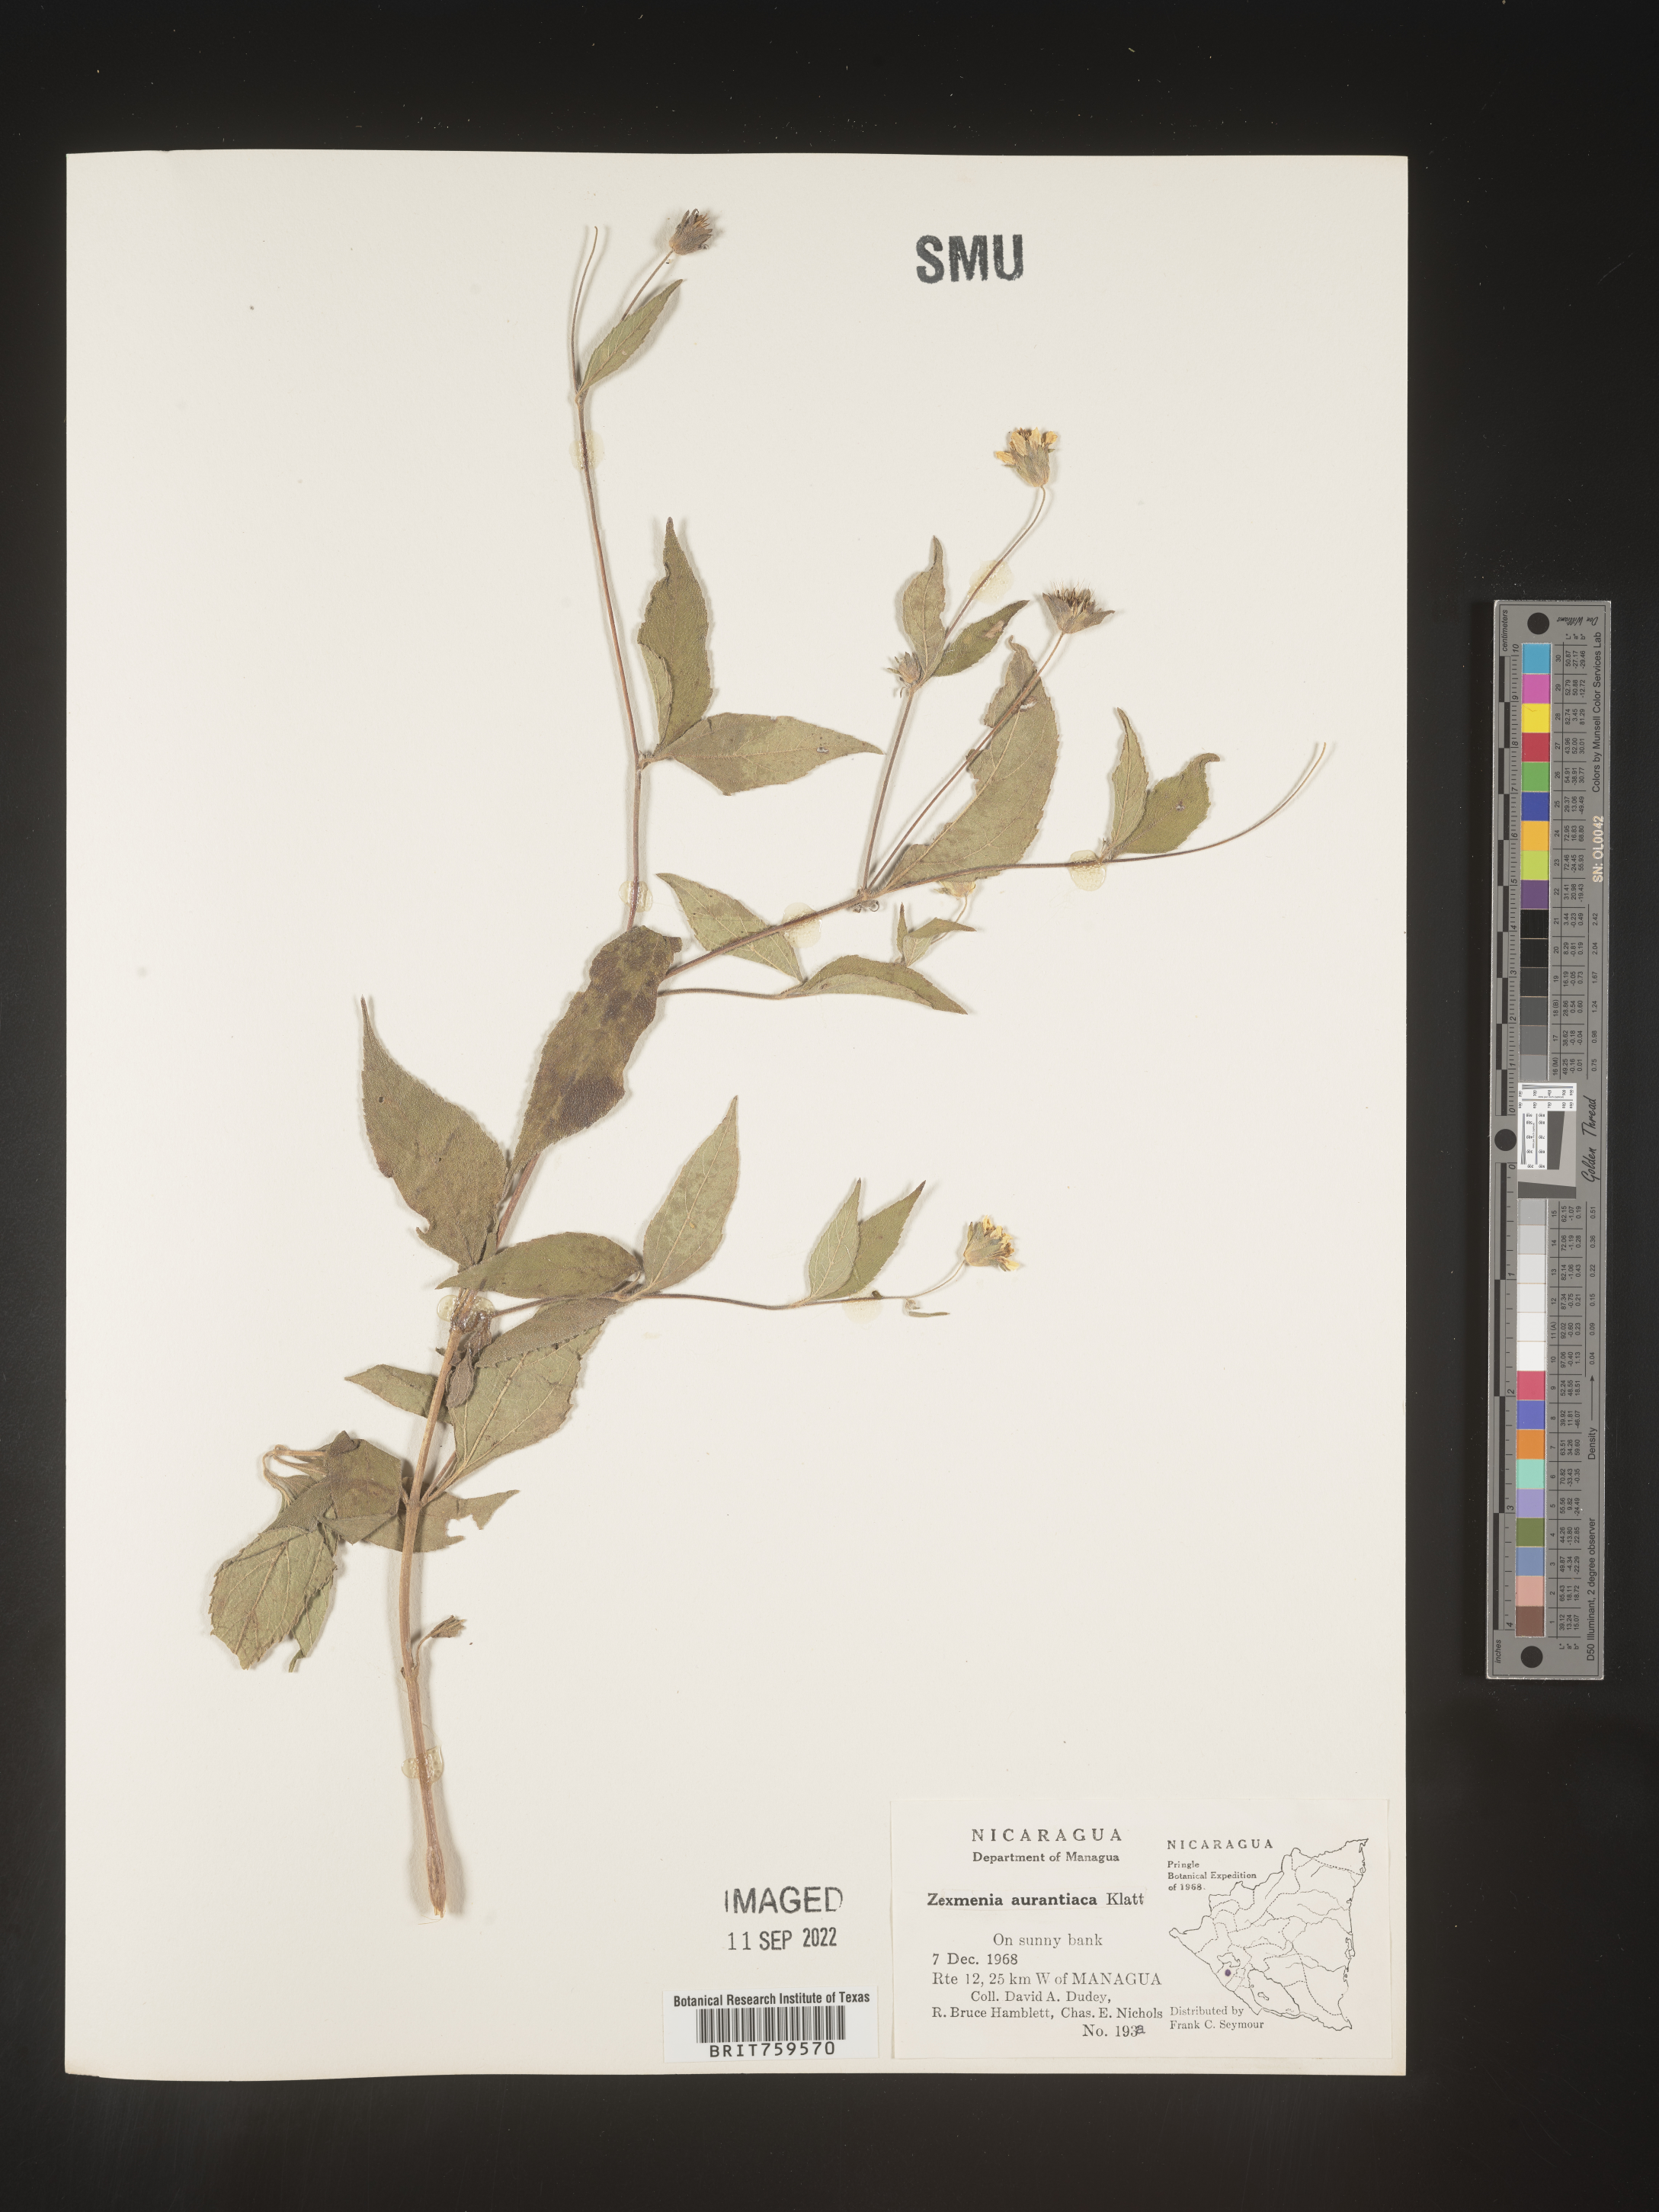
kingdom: Plantae
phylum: Tracheophyta
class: Magnoliopsida
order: Asterales
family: Asteraceae
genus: Zexmenia
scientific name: Zexmenia
